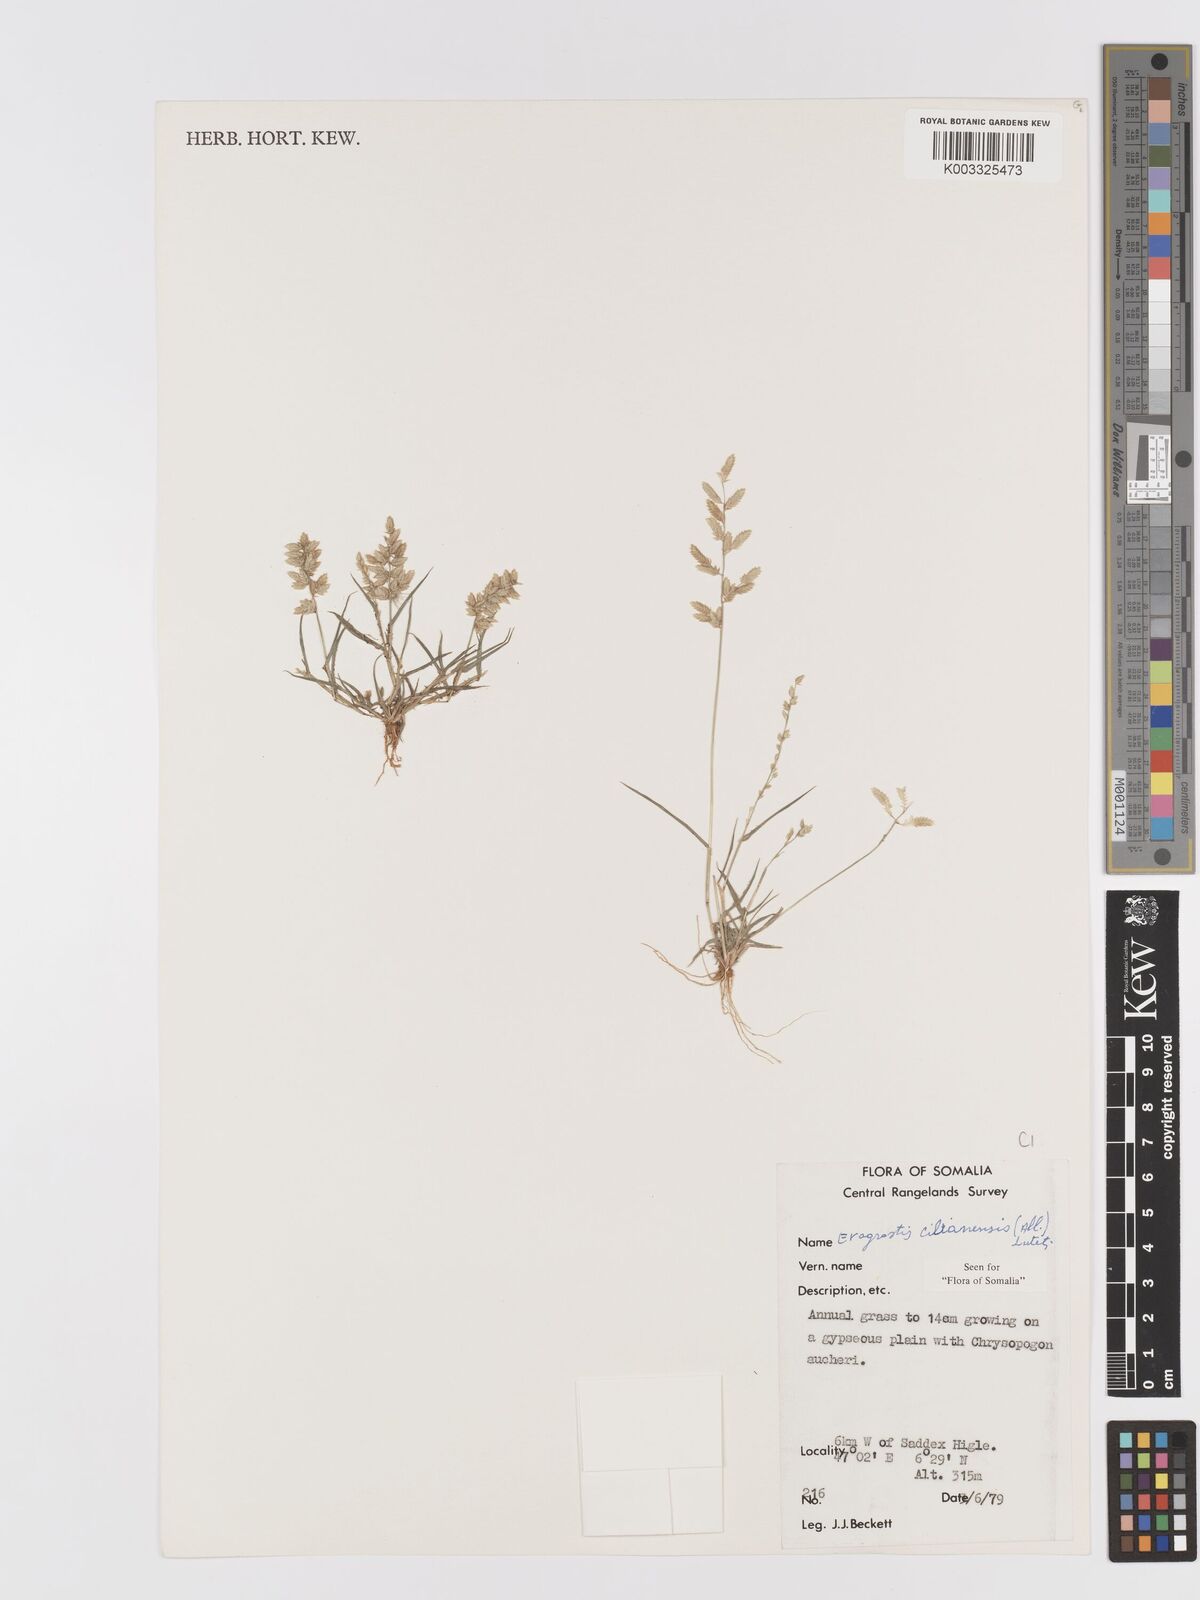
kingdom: Plantae
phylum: Tracheophyta
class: Liliopsida
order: Poales
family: Poaceae
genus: Eragrostis
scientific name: Eragrostis cilianensis
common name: Stinkgrass
